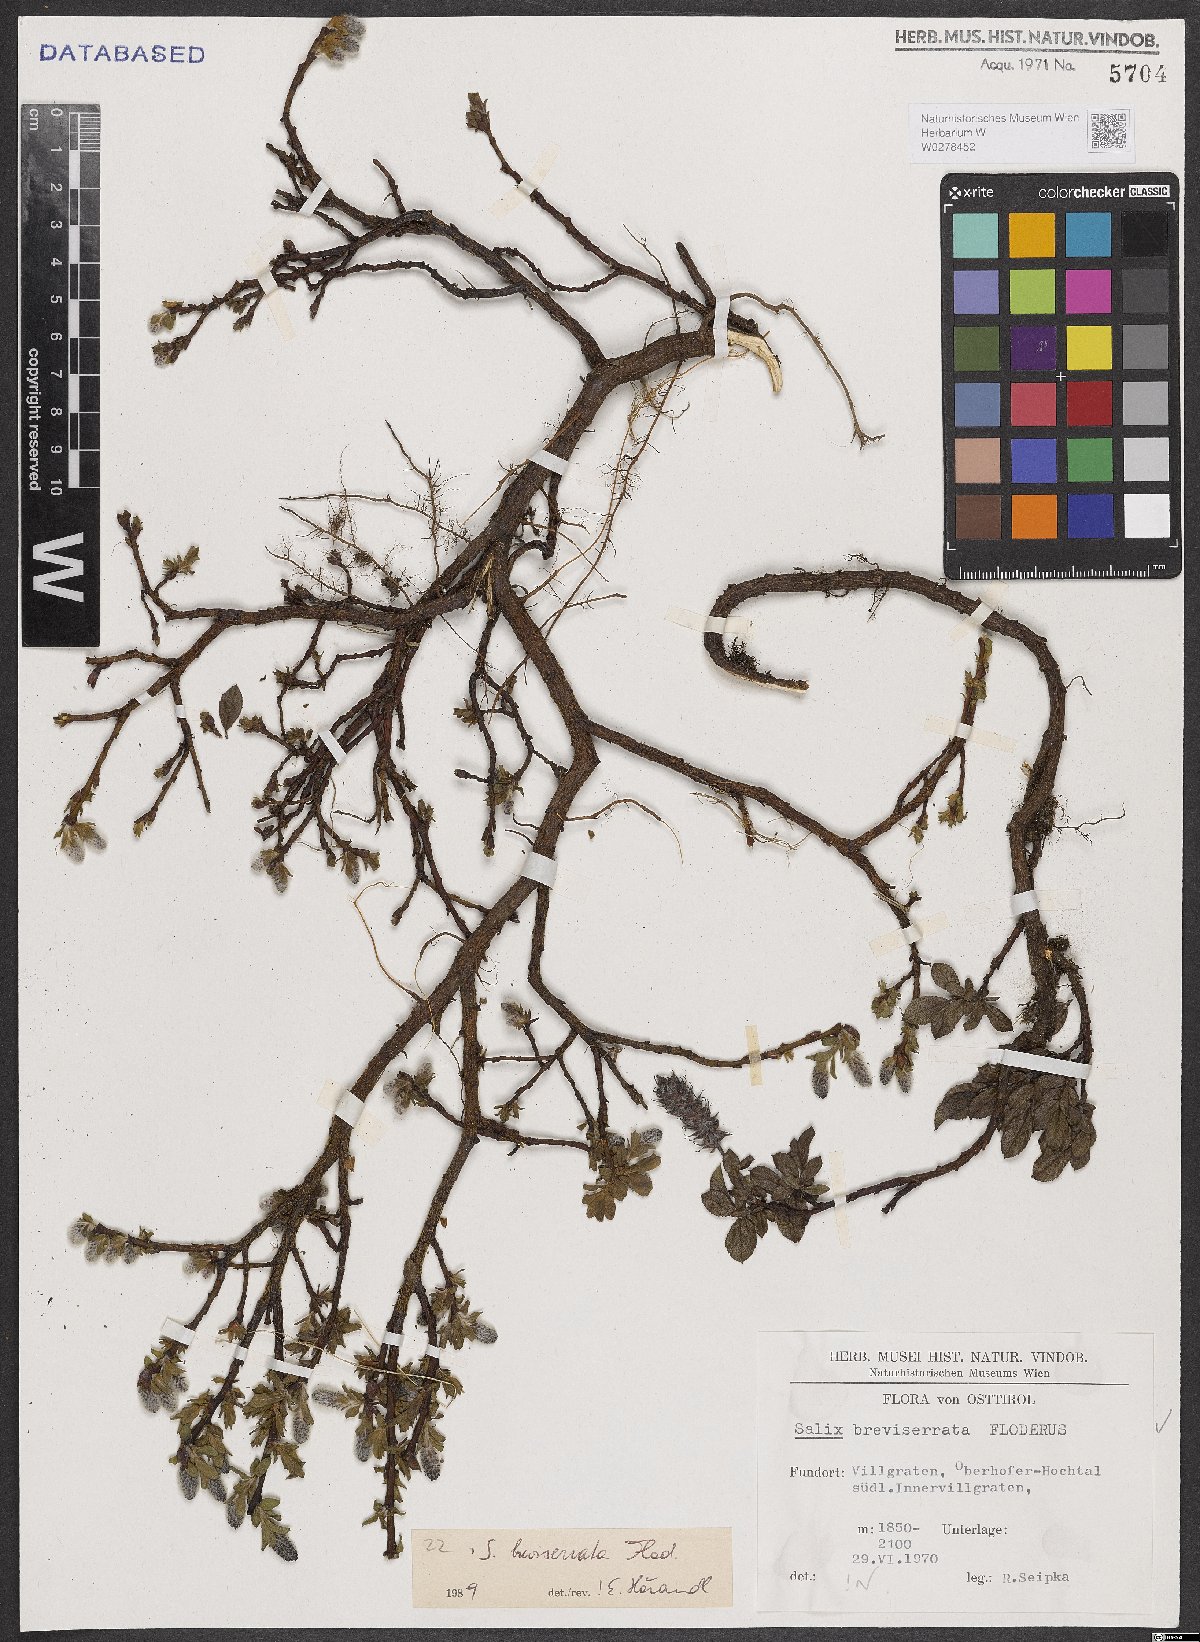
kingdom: Plantae
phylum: Tracheophyta
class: Magnoliopsida
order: Malpighiales
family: Salicaceae
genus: Salix
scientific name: Salix breviserrata
